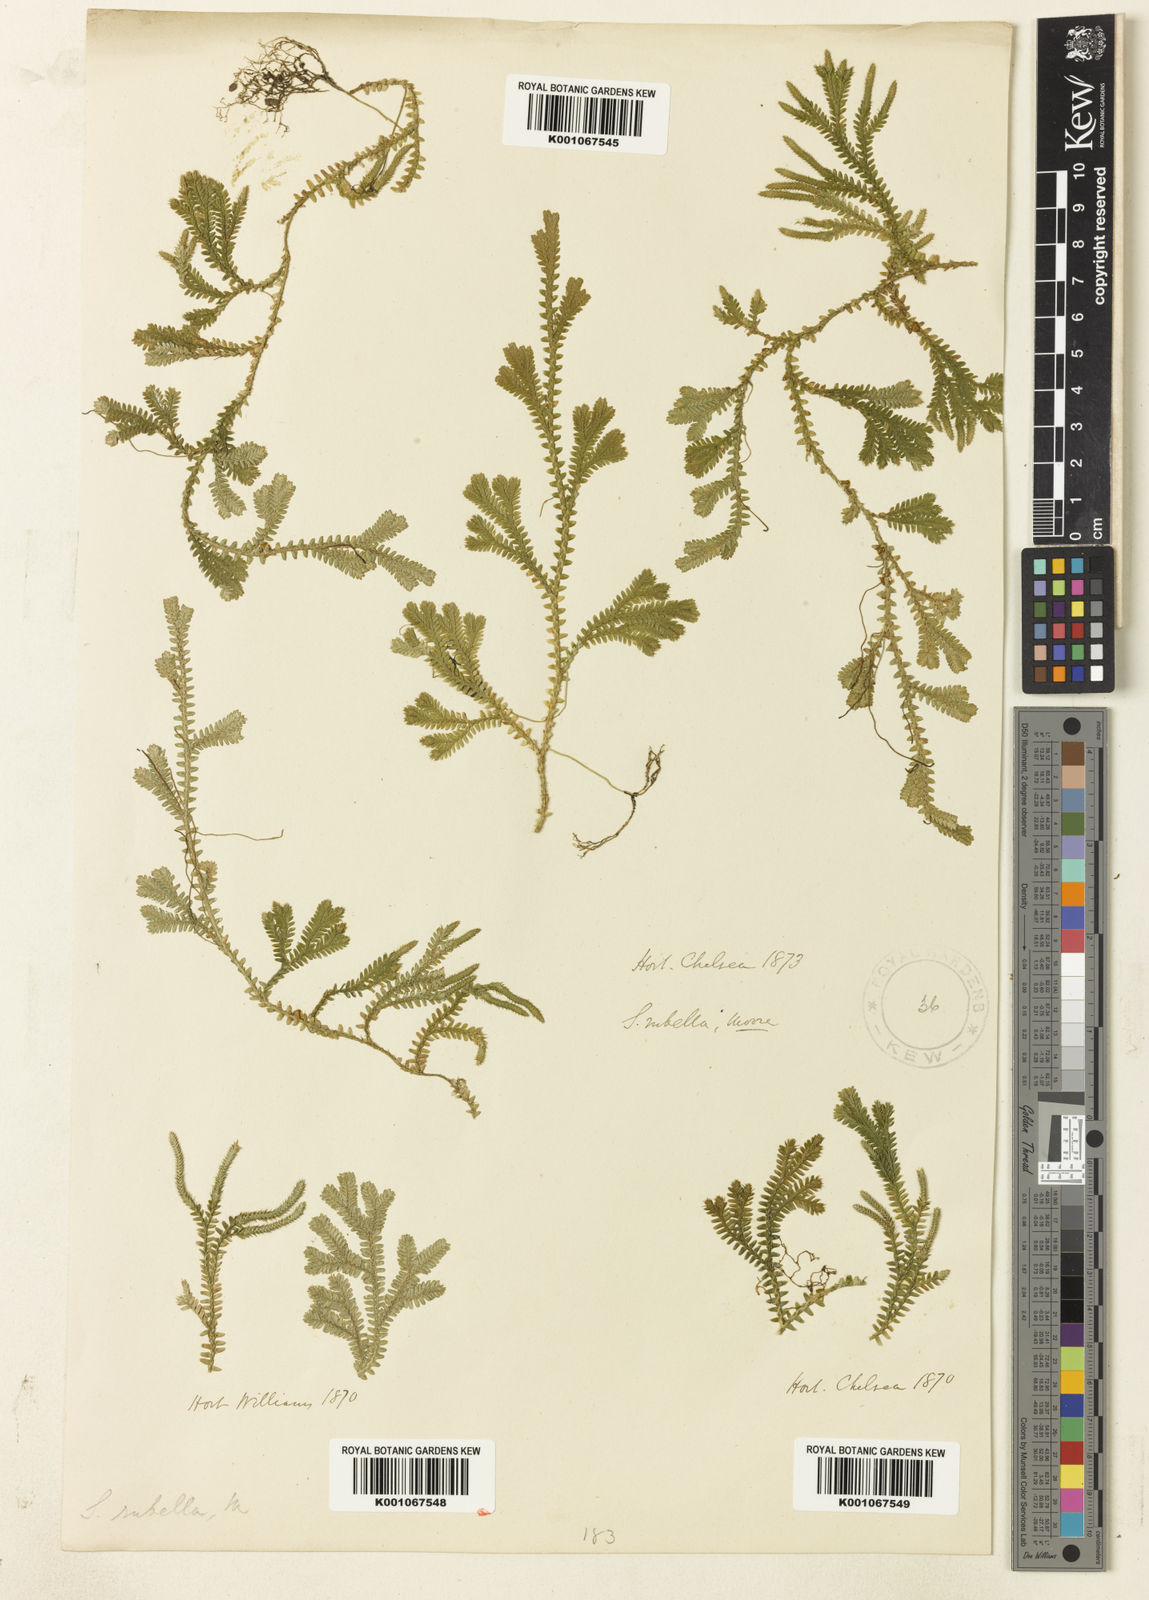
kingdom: Plantae
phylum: Tracheophyta
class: Lycopodiopsida
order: Selaginellales
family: Selaginellaceae
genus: Selaginella
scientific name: Selaginella concinna
